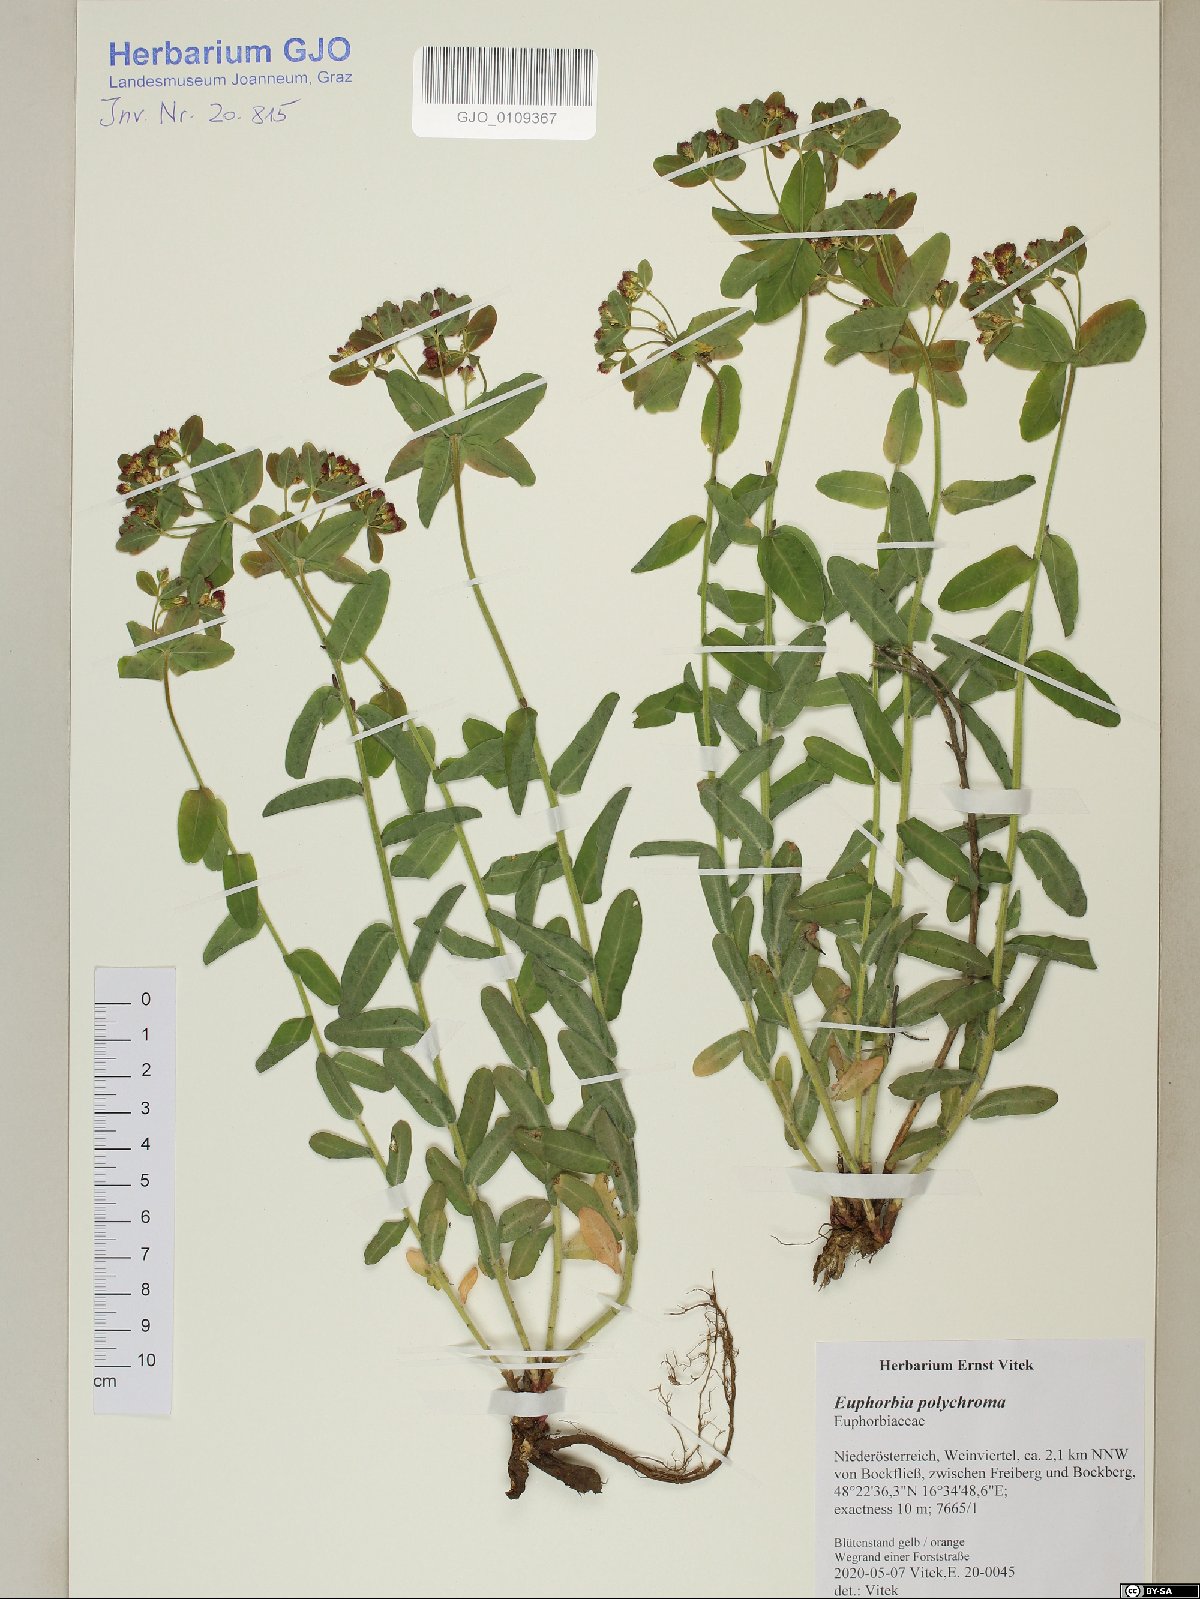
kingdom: Plantae
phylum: Tracheophyta
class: Magnoliopsida
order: Malpighiales
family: Euphorbiaceae
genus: Euphorbia
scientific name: Euphorbia epithymoides
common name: Cushion spurge
